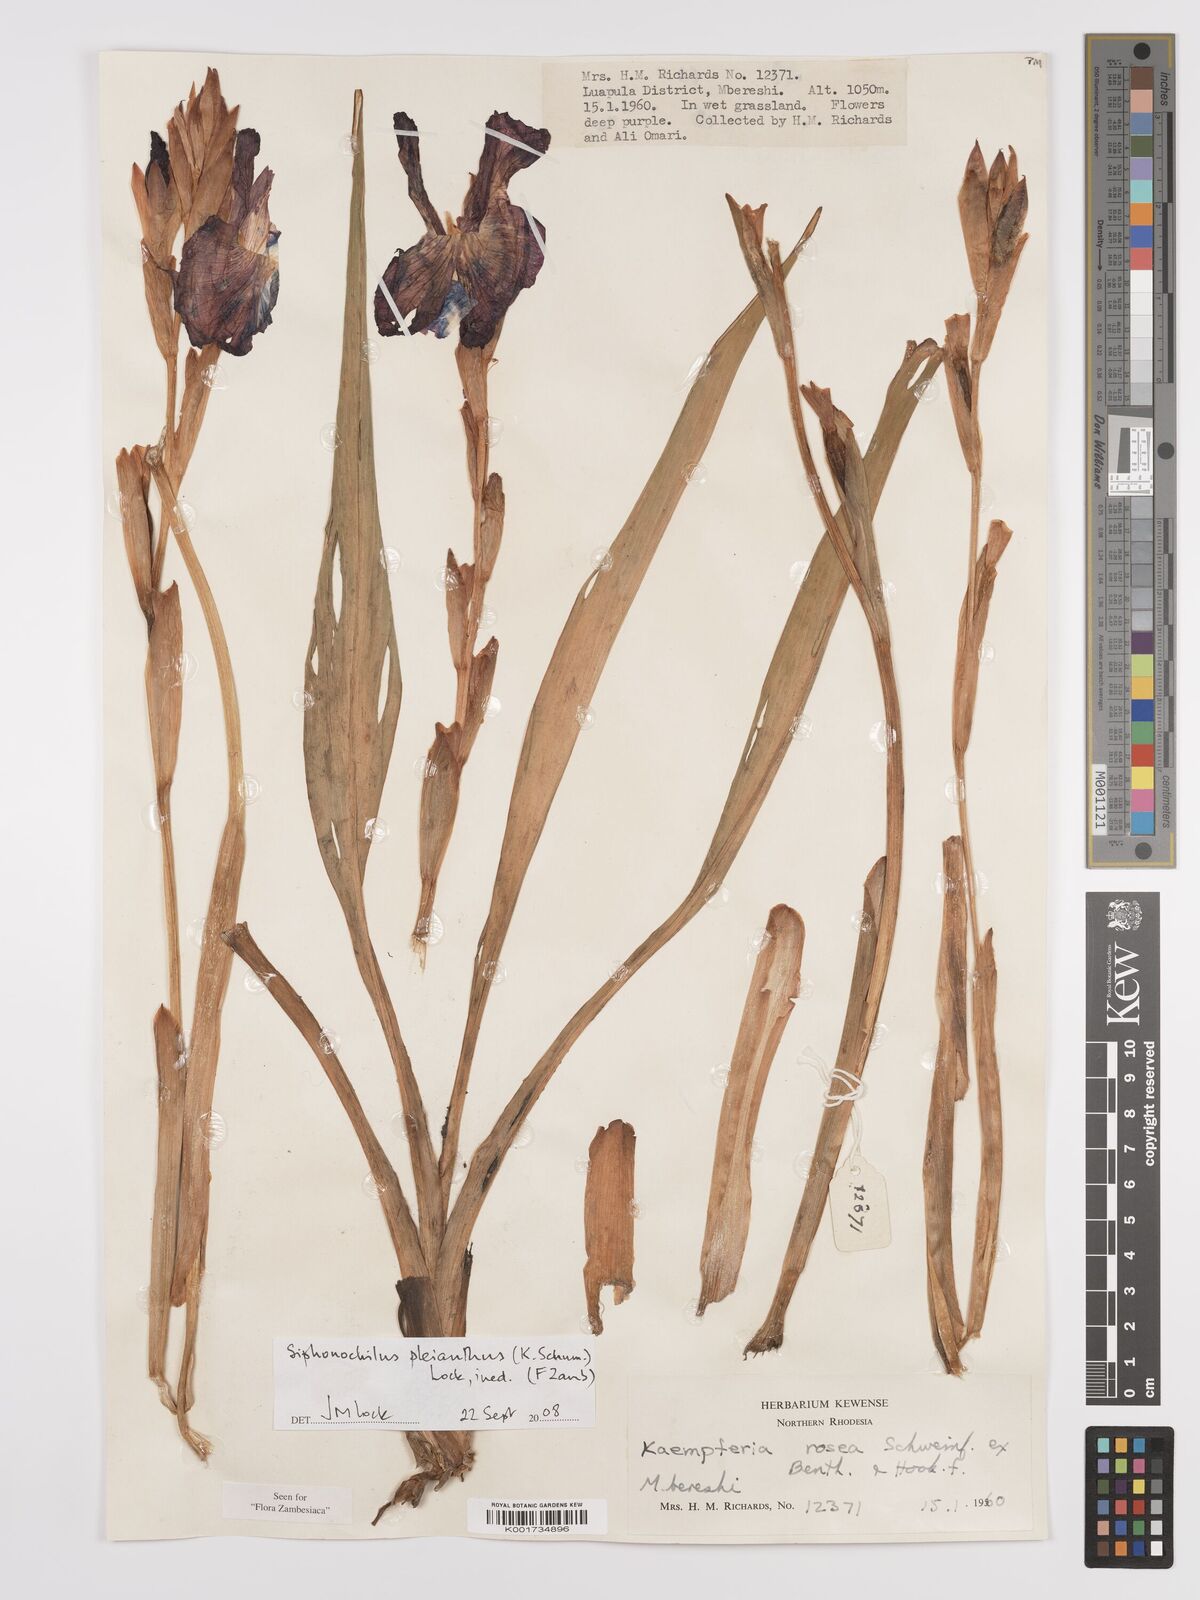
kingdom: Plantae
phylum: Tracheophyta
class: Liliopsida
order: Zingiberales
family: Zingiberaceae
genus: Siphonochilus
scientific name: Siphonochilus pleianthus
